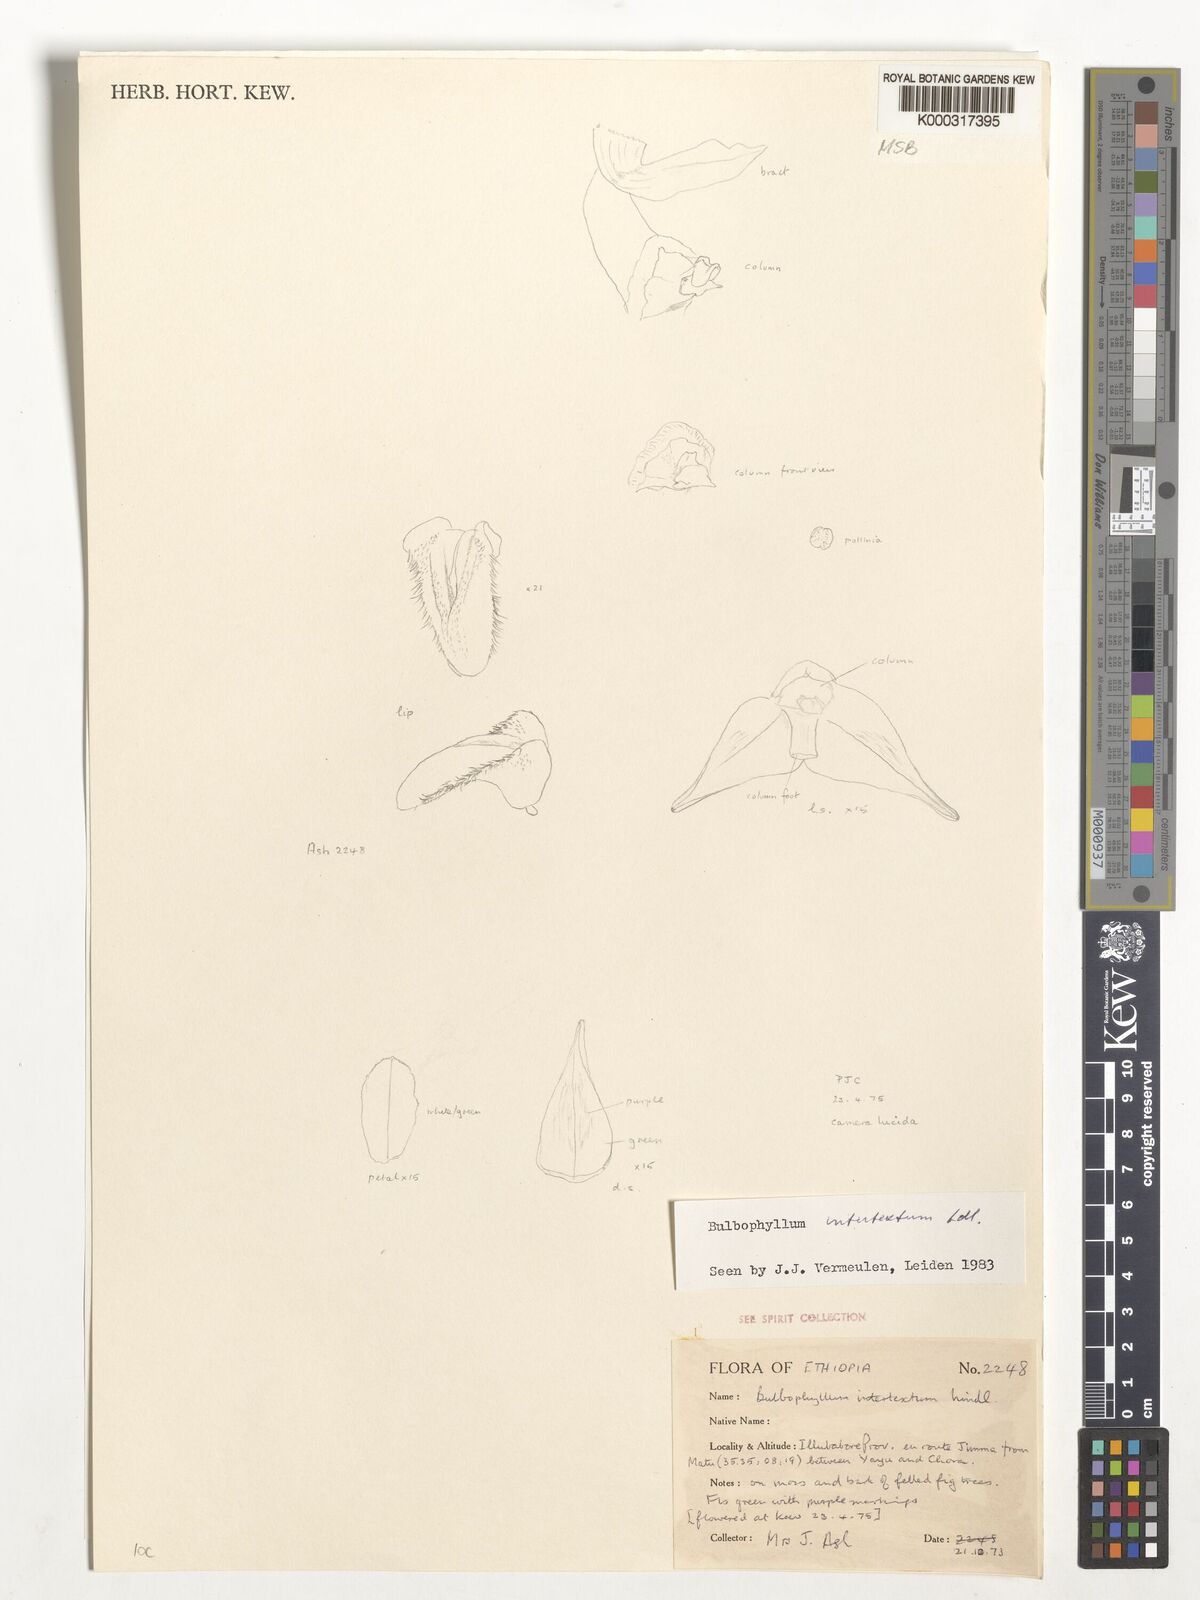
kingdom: Plantae
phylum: Tracheophyta
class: Liliopsida
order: Asparagales
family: Orchidaceae
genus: Bulbophyllum
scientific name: Bulbophyllum intertextum
